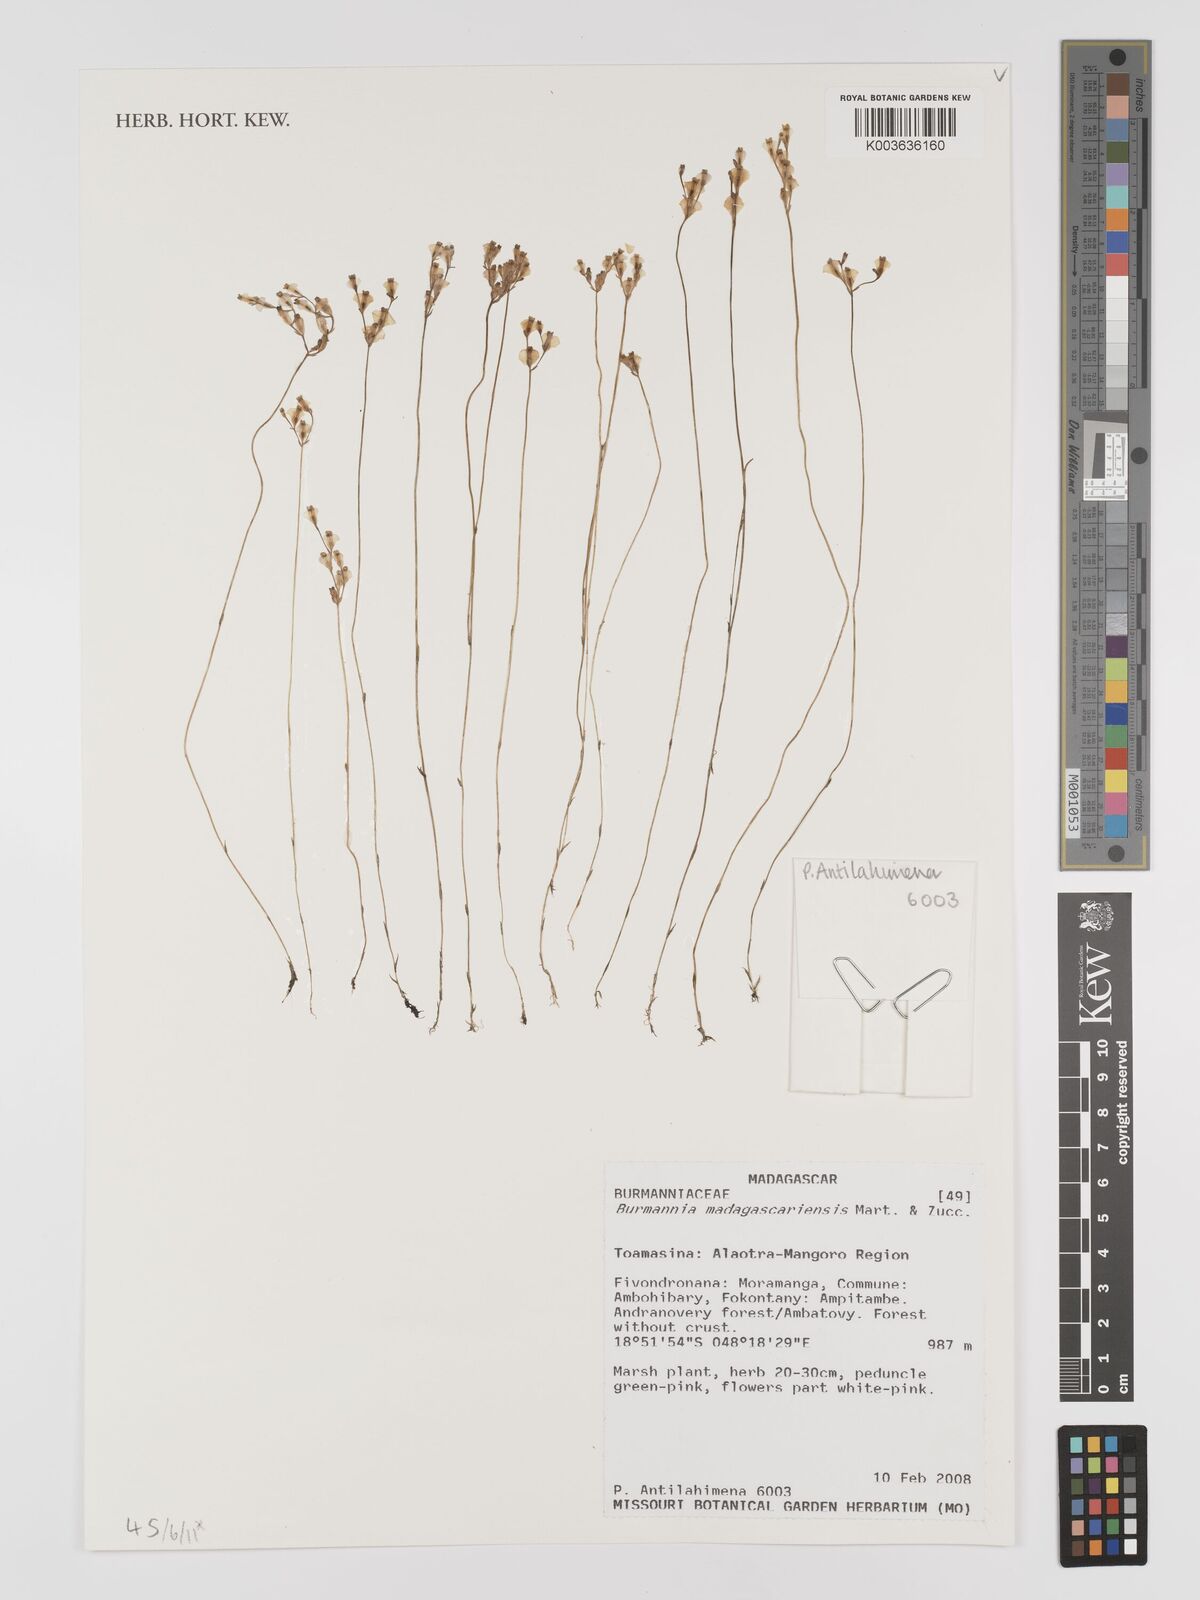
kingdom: Plantae
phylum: Tracheophyta
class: Liliopsida
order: Dioscoreales
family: Burmanniaceae
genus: Burmannia
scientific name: Burmannia madagascariensis
